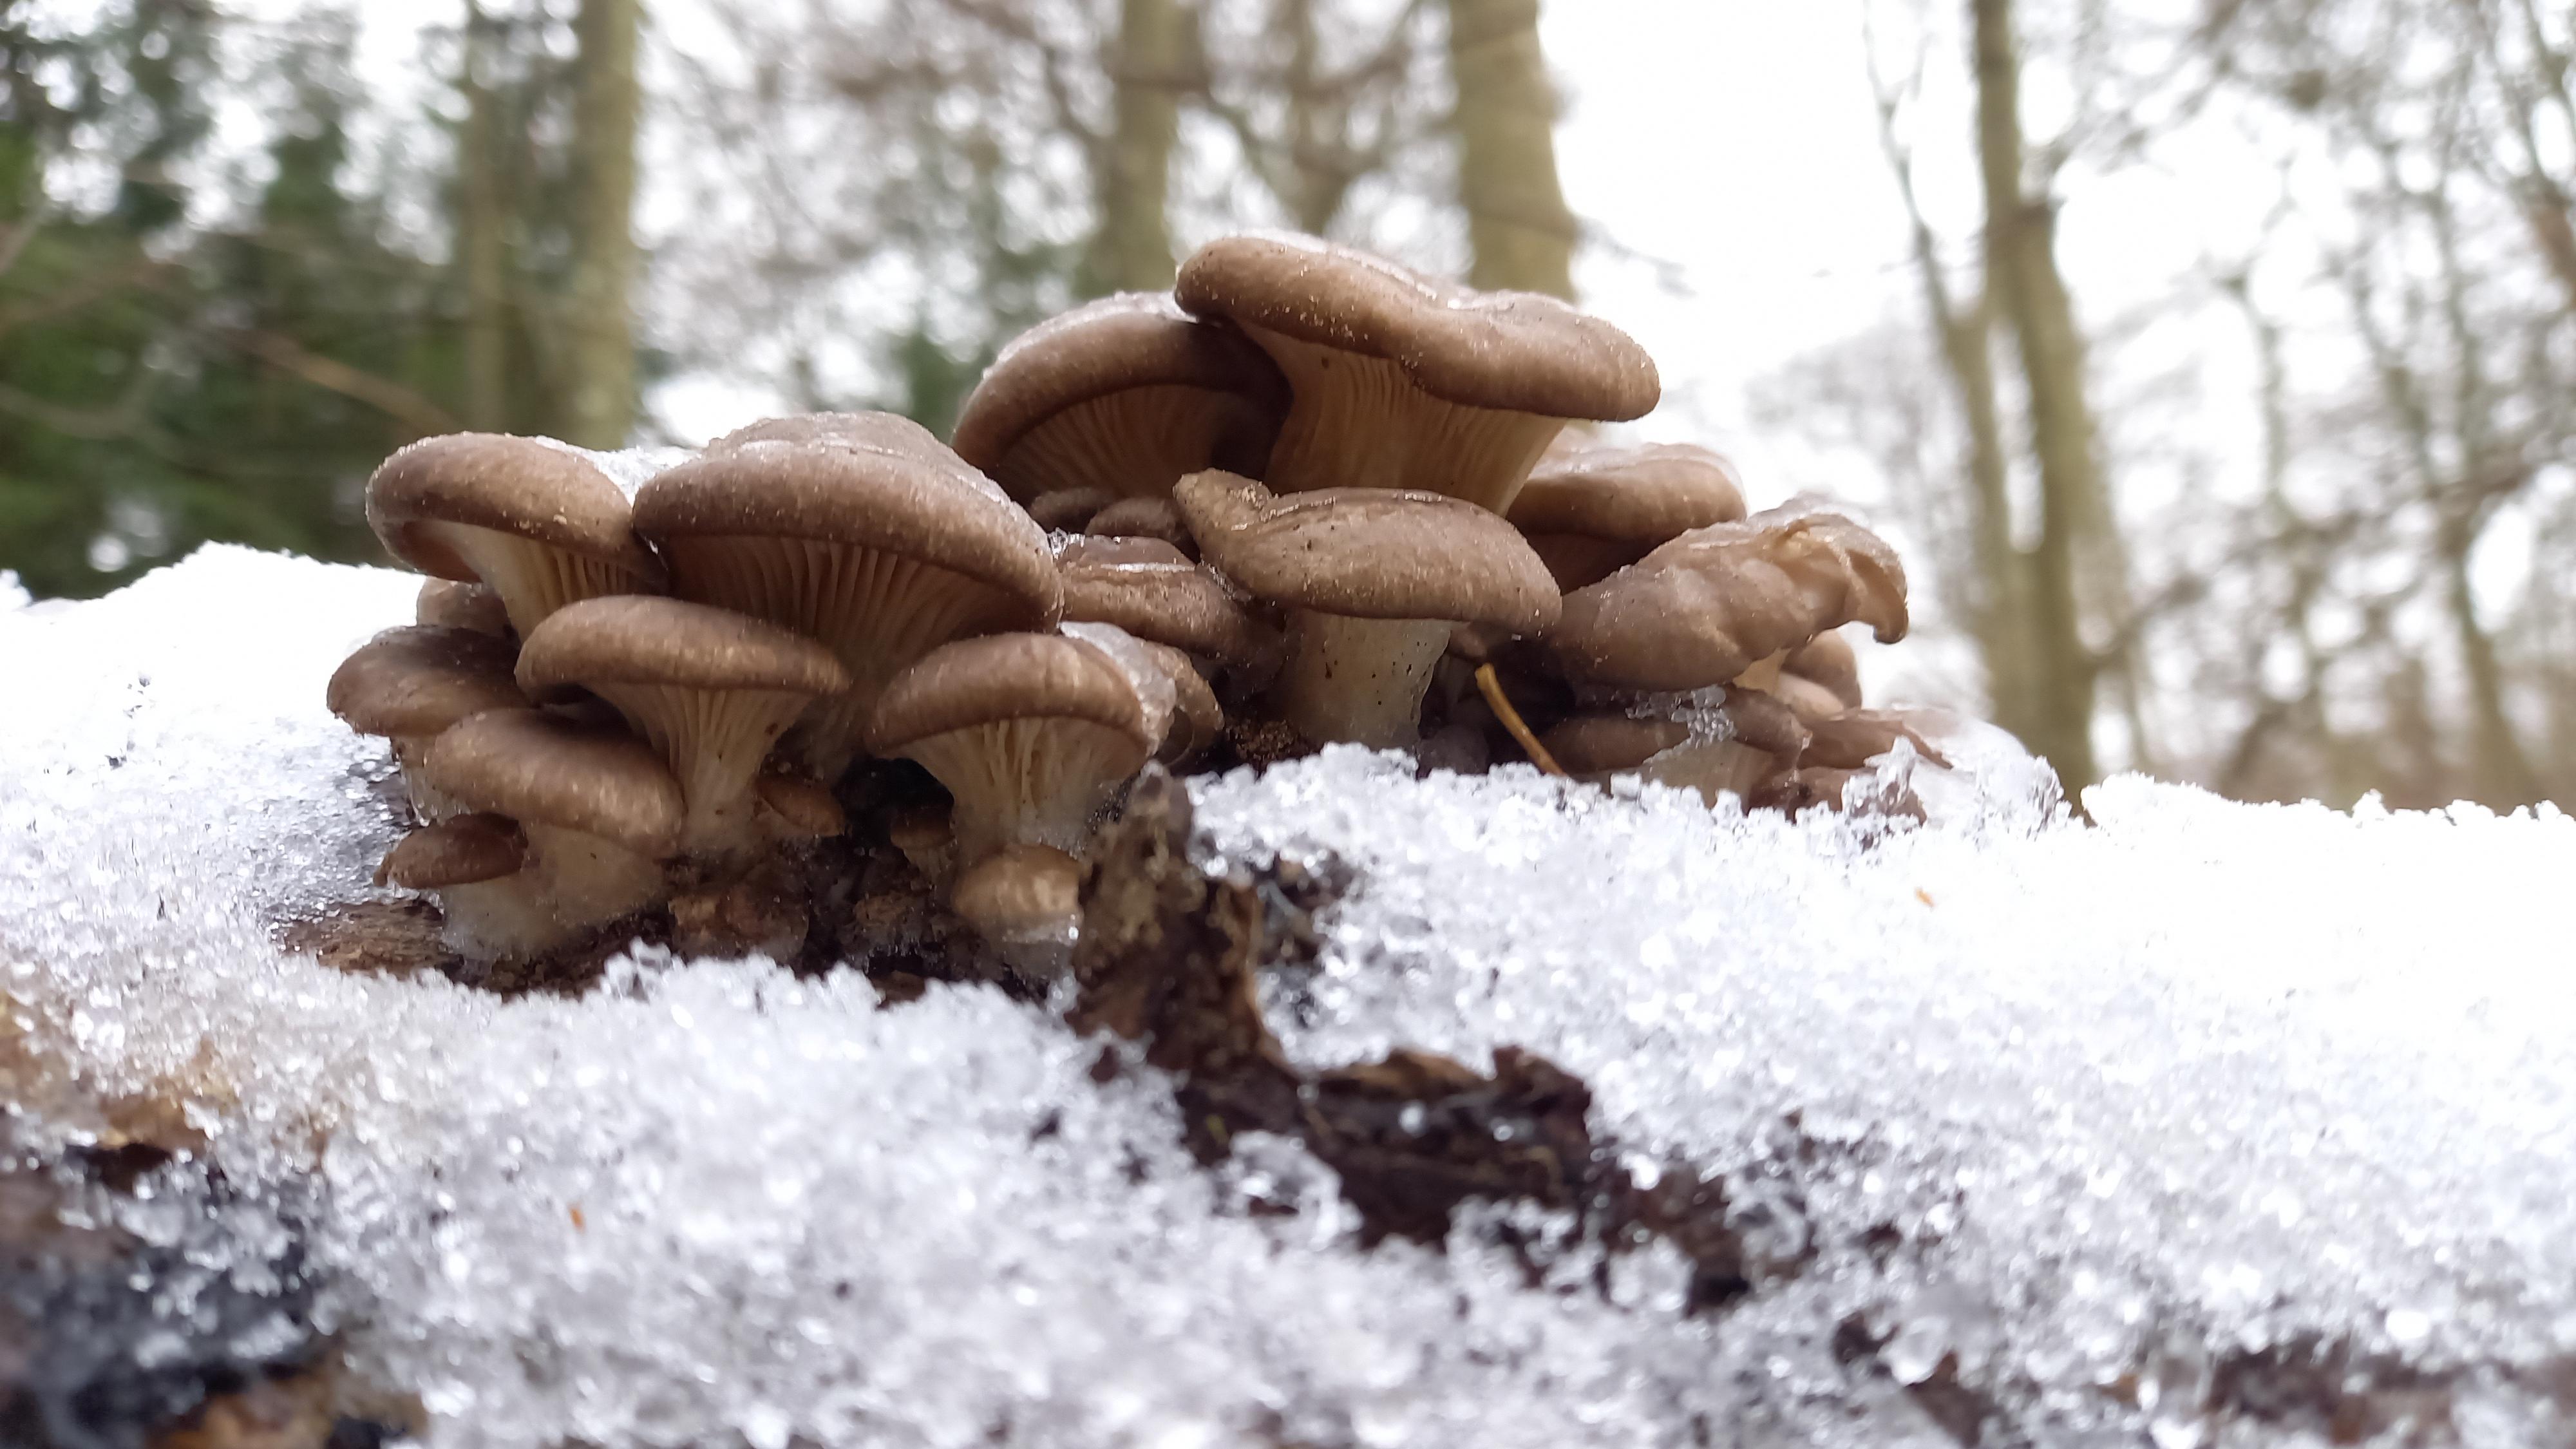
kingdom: Fungi
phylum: Basidiomycota
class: Agaricomycetes
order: Agaricales
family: Pleurotaceae
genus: Pleurotus
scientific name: Pleurotus ostreatus
